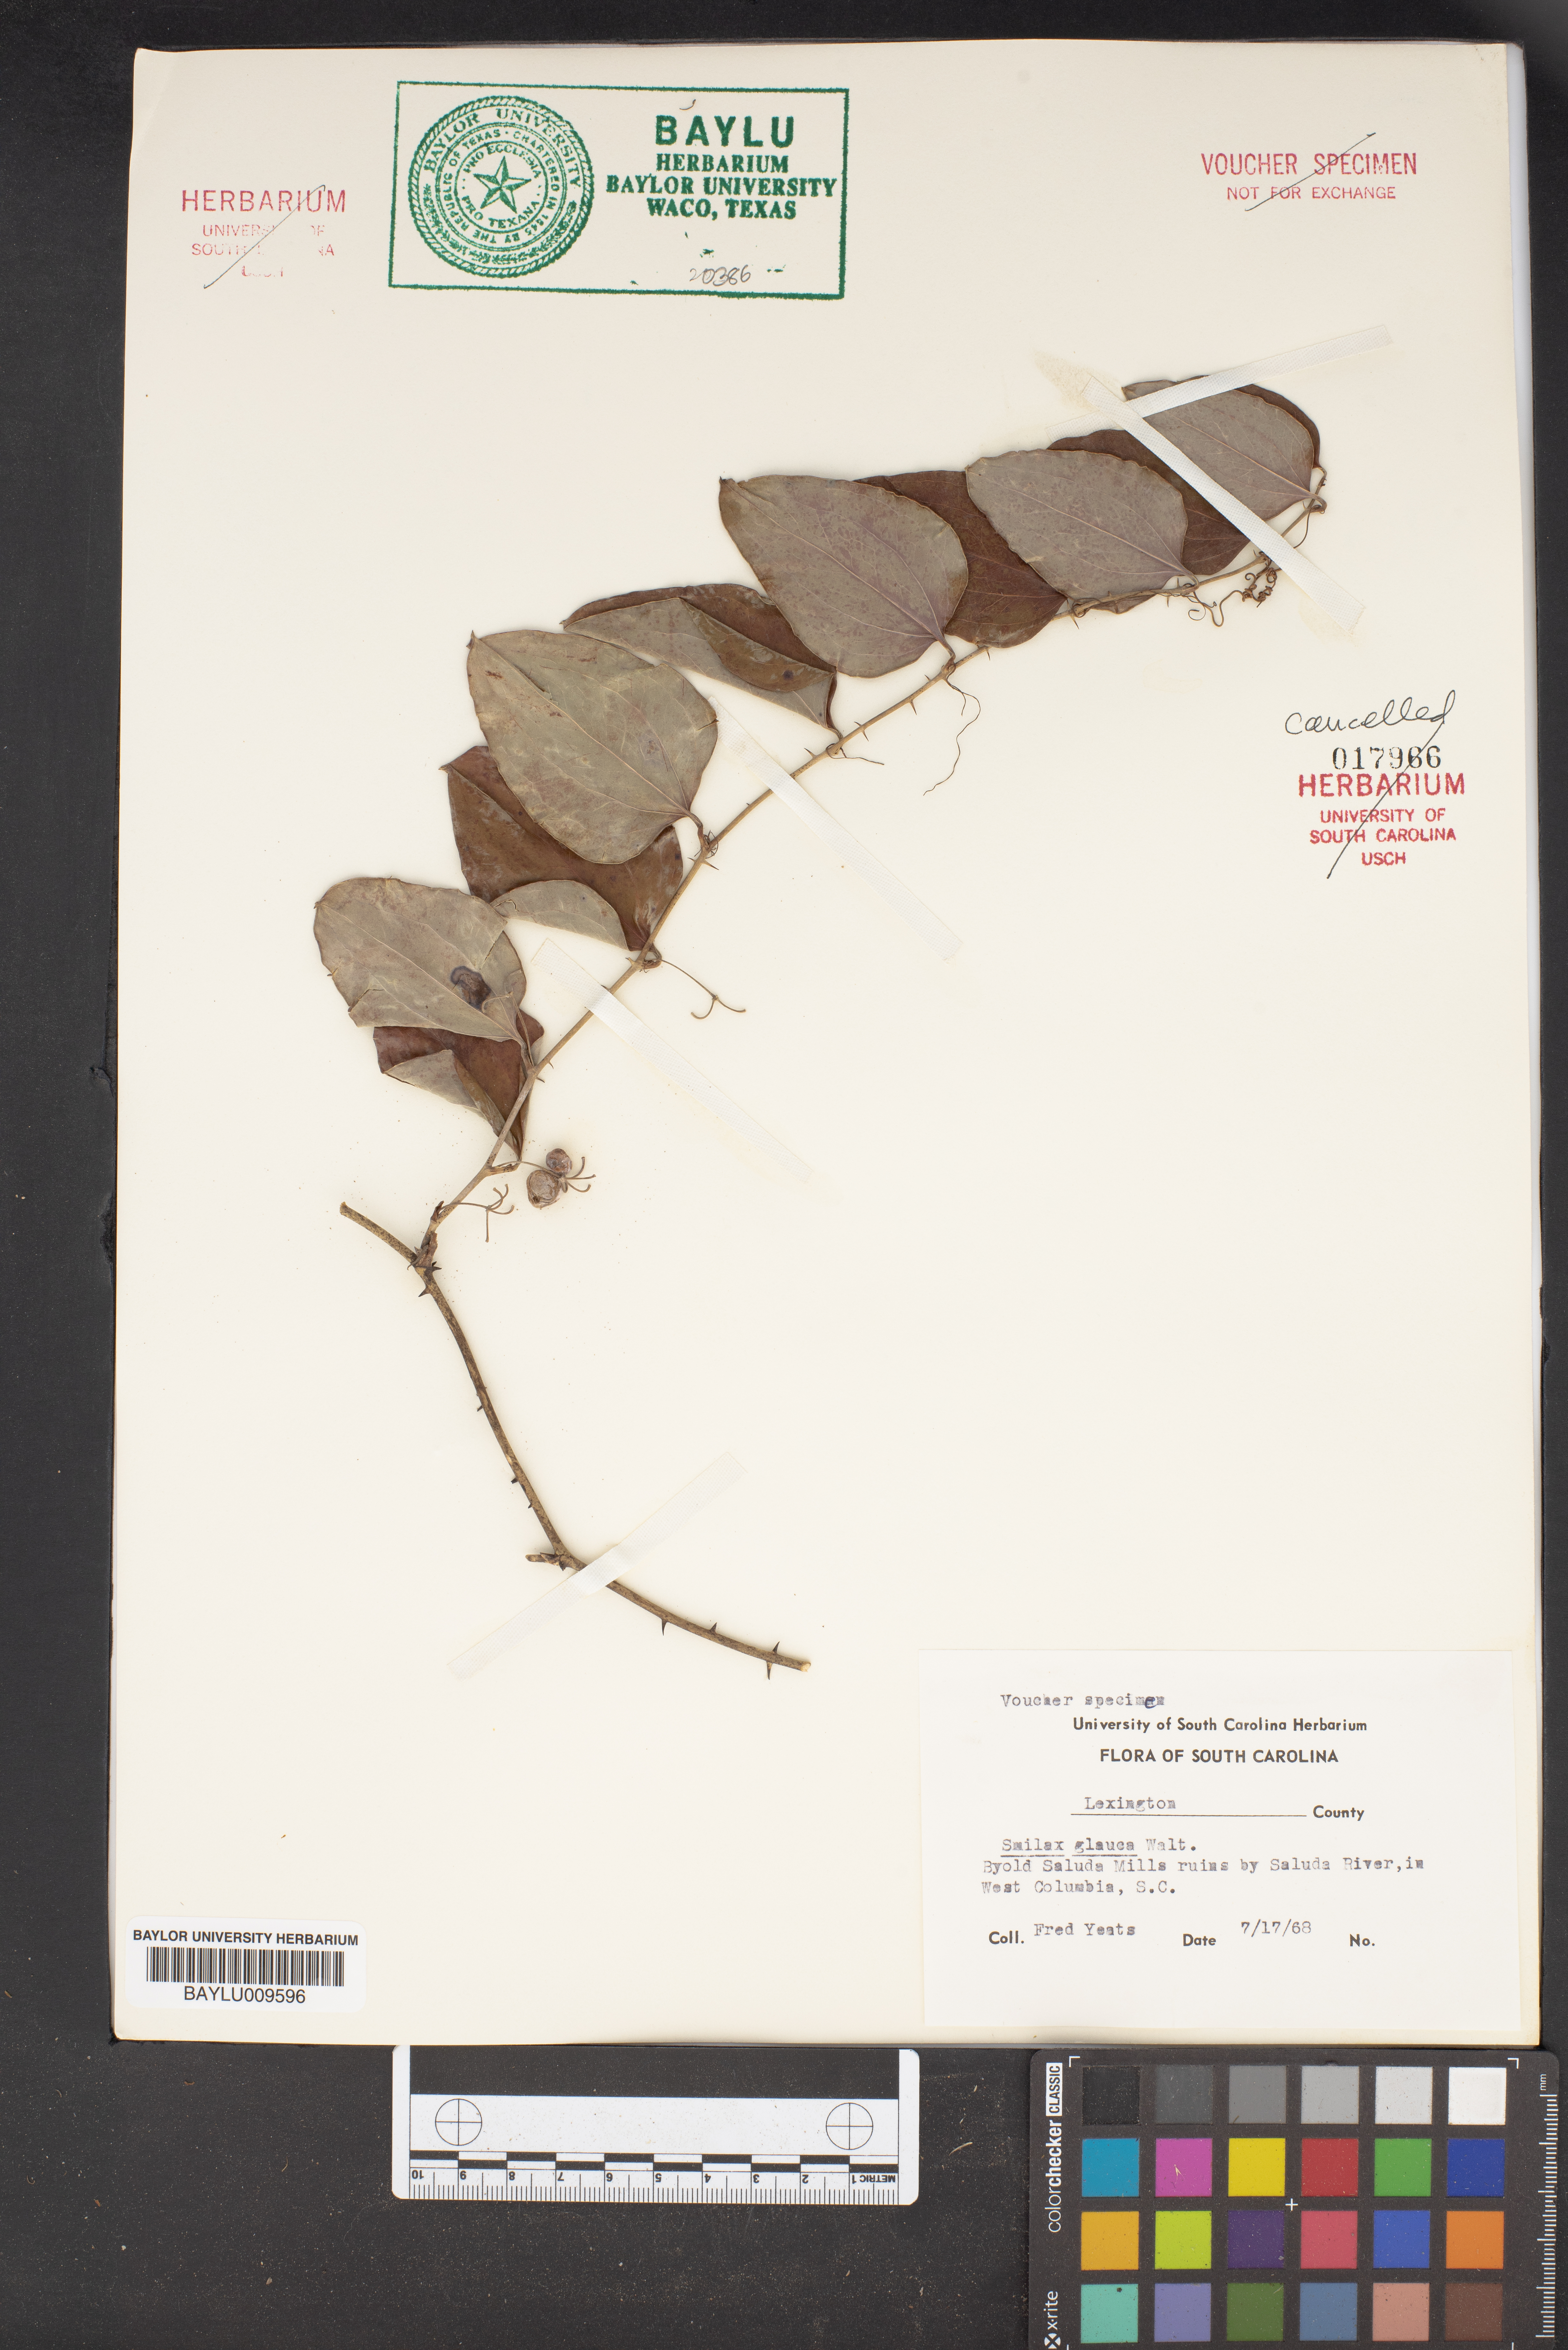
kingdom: Plantae
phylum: Tracheophyta
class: Liliopsida
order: Liliales
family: Smilacaceae
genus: Smilax
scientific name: Smilax glauca
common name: Cat greenbrier
